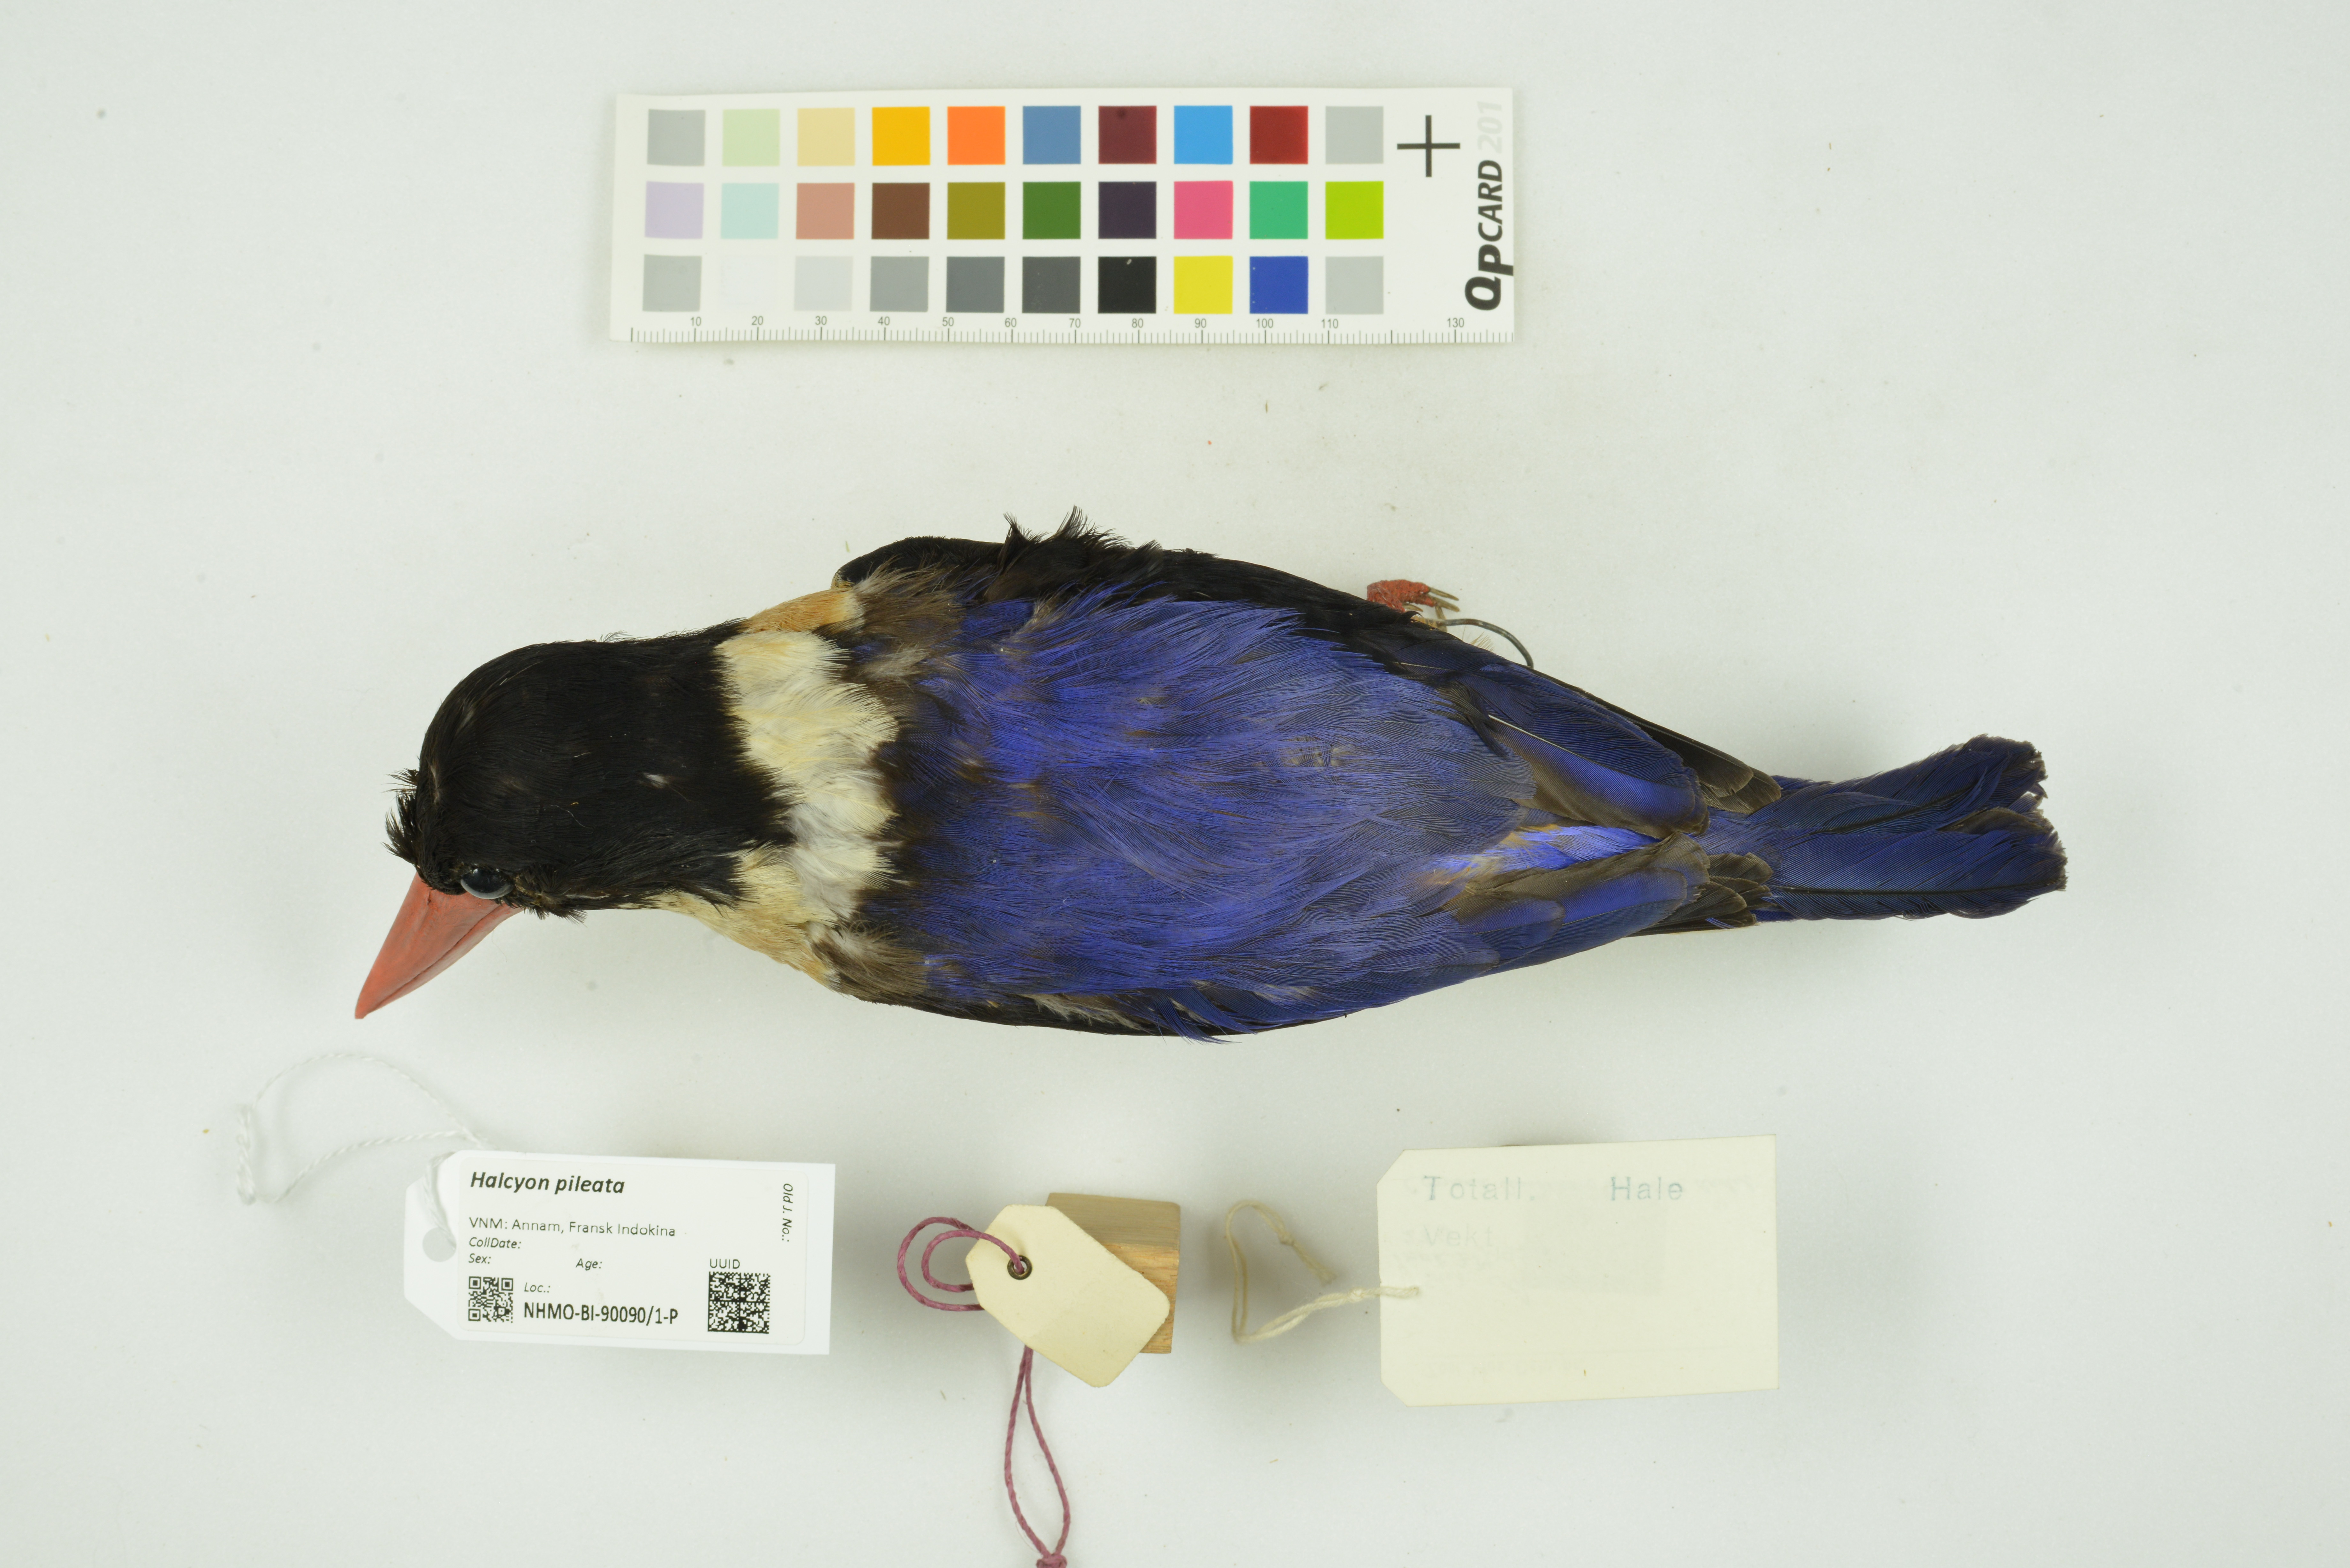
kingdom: Animalia
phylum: Chordata
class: Aves
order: Coraciiformes
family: Alcedinidae
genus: Halcyon
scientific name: Halcyon pileata
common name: Black-capped kingfisher
